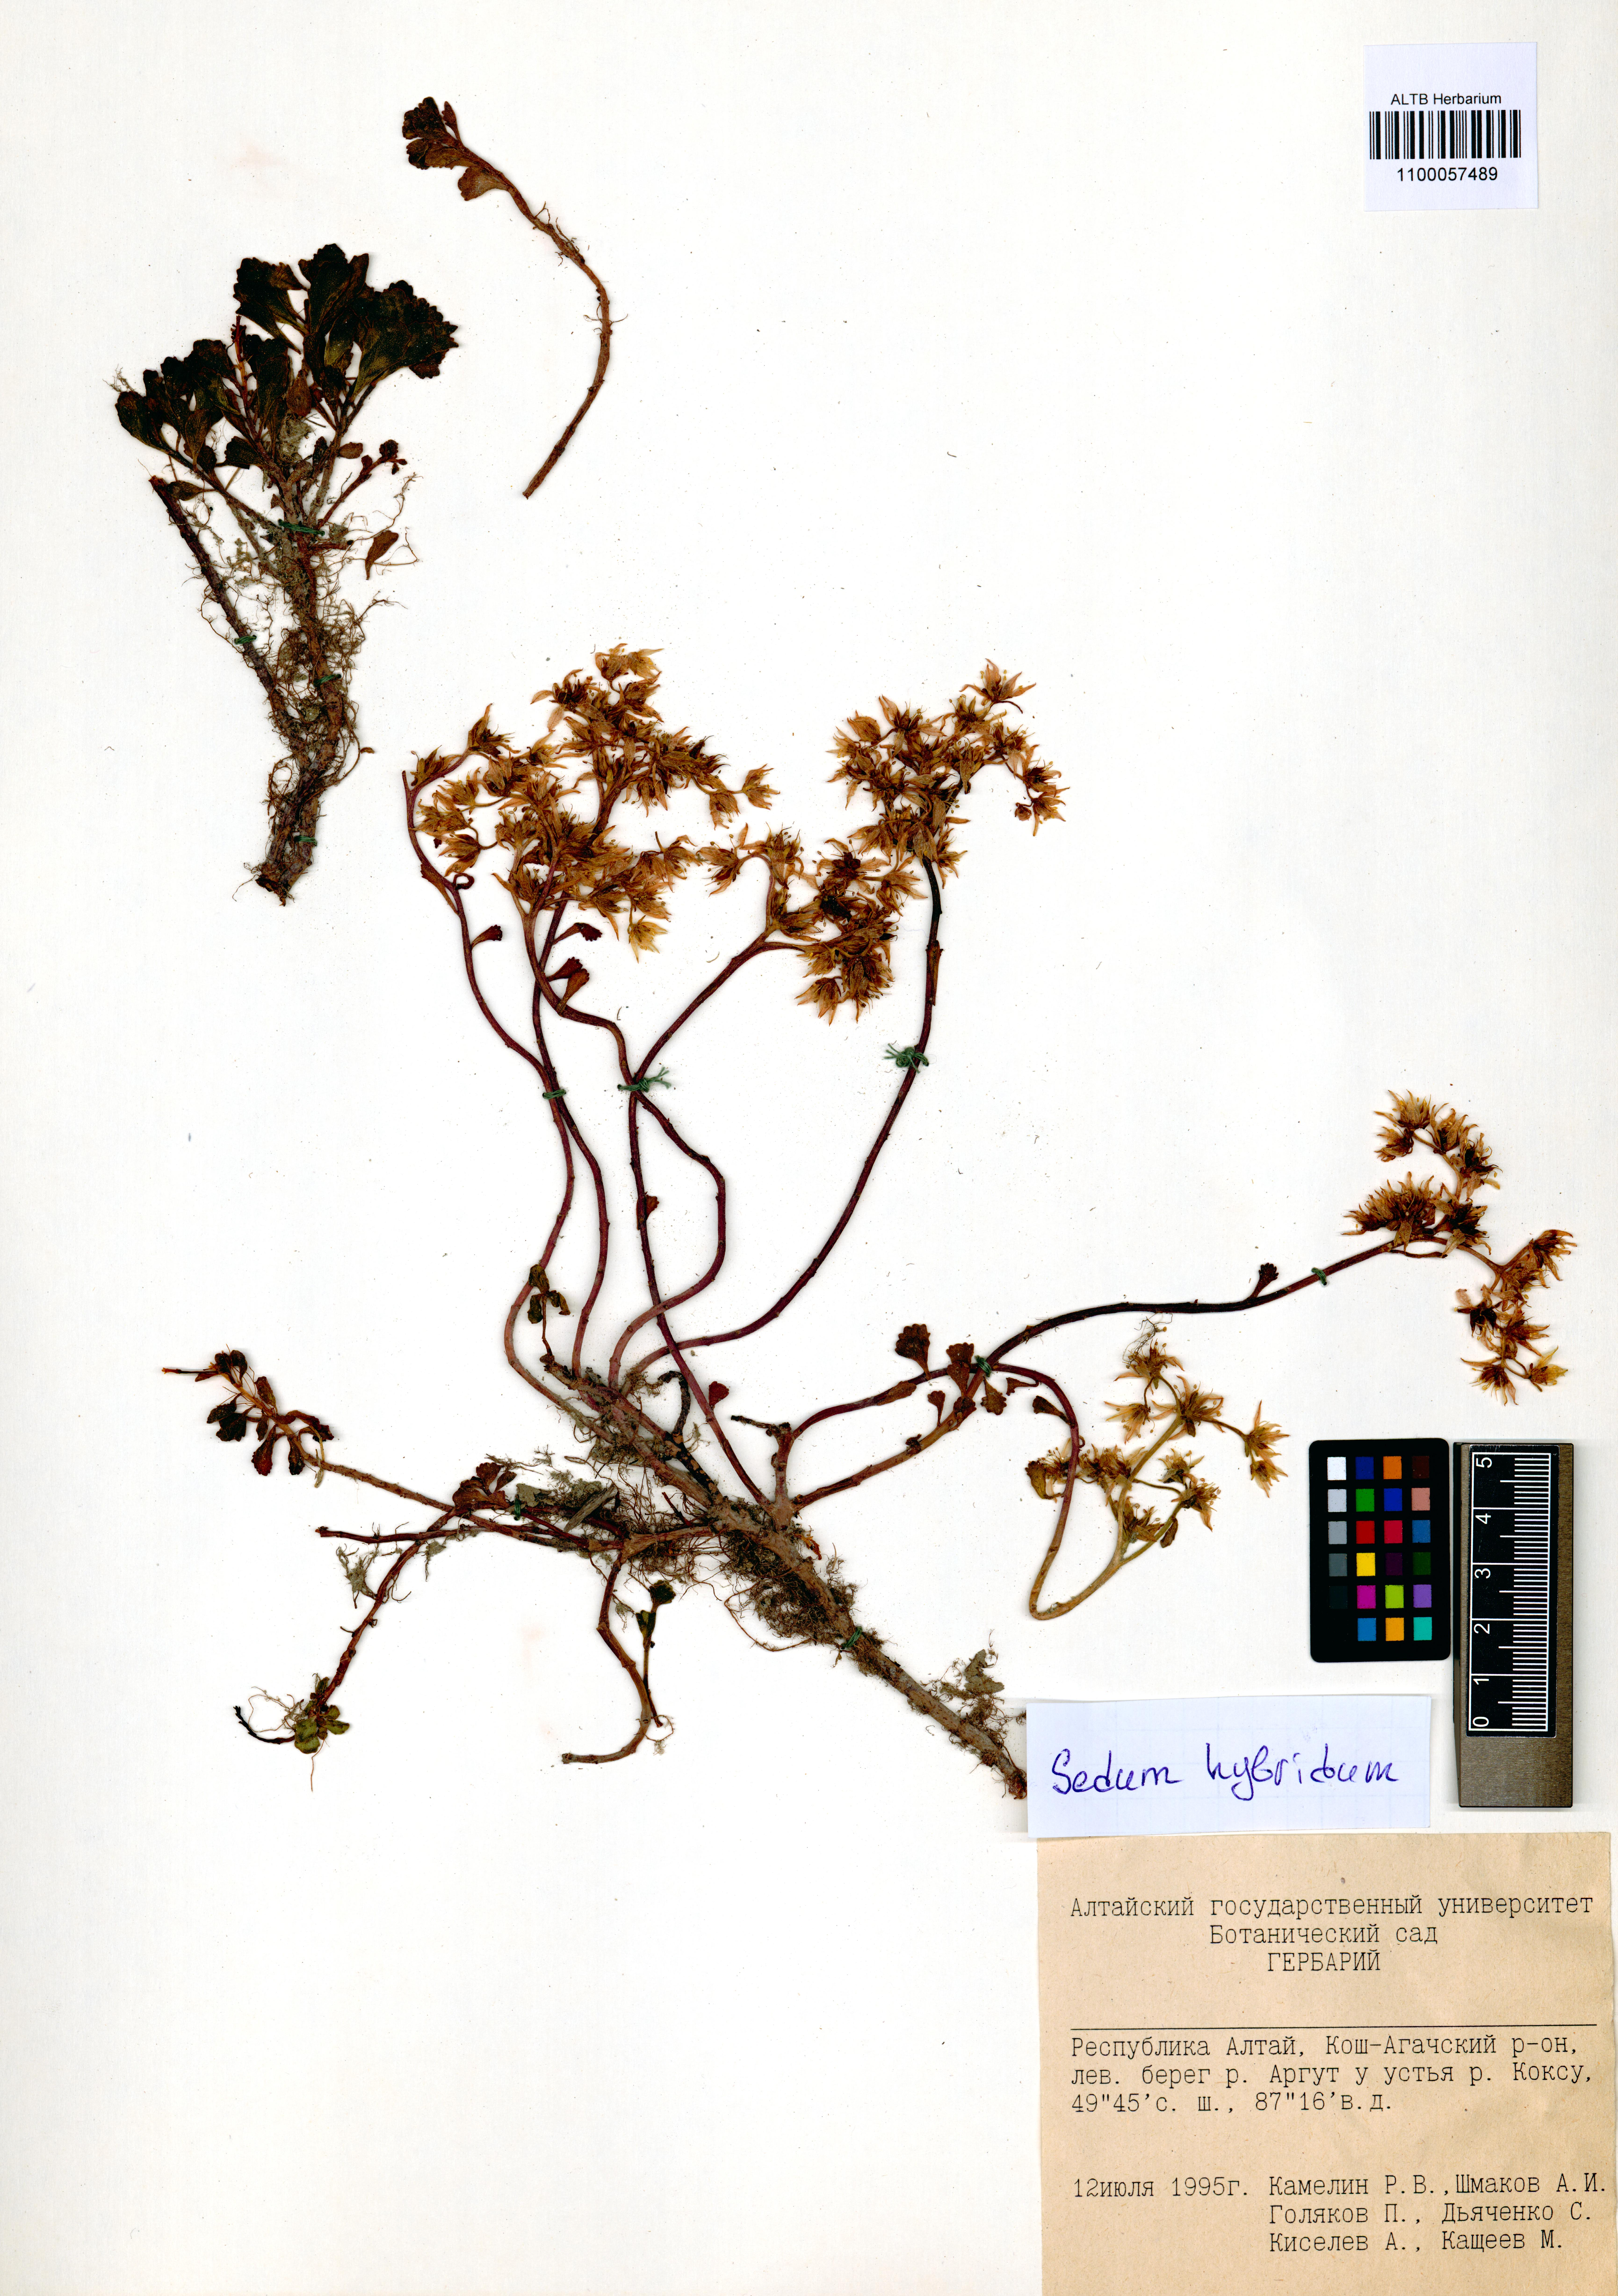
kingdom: Plantae
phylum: Tracheophyta
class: Magnoliopsida
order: Saxifragales
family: Crassulaceae
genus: Phedimus
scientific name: Phedimus hybridus
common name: Hybrid stonecrop
